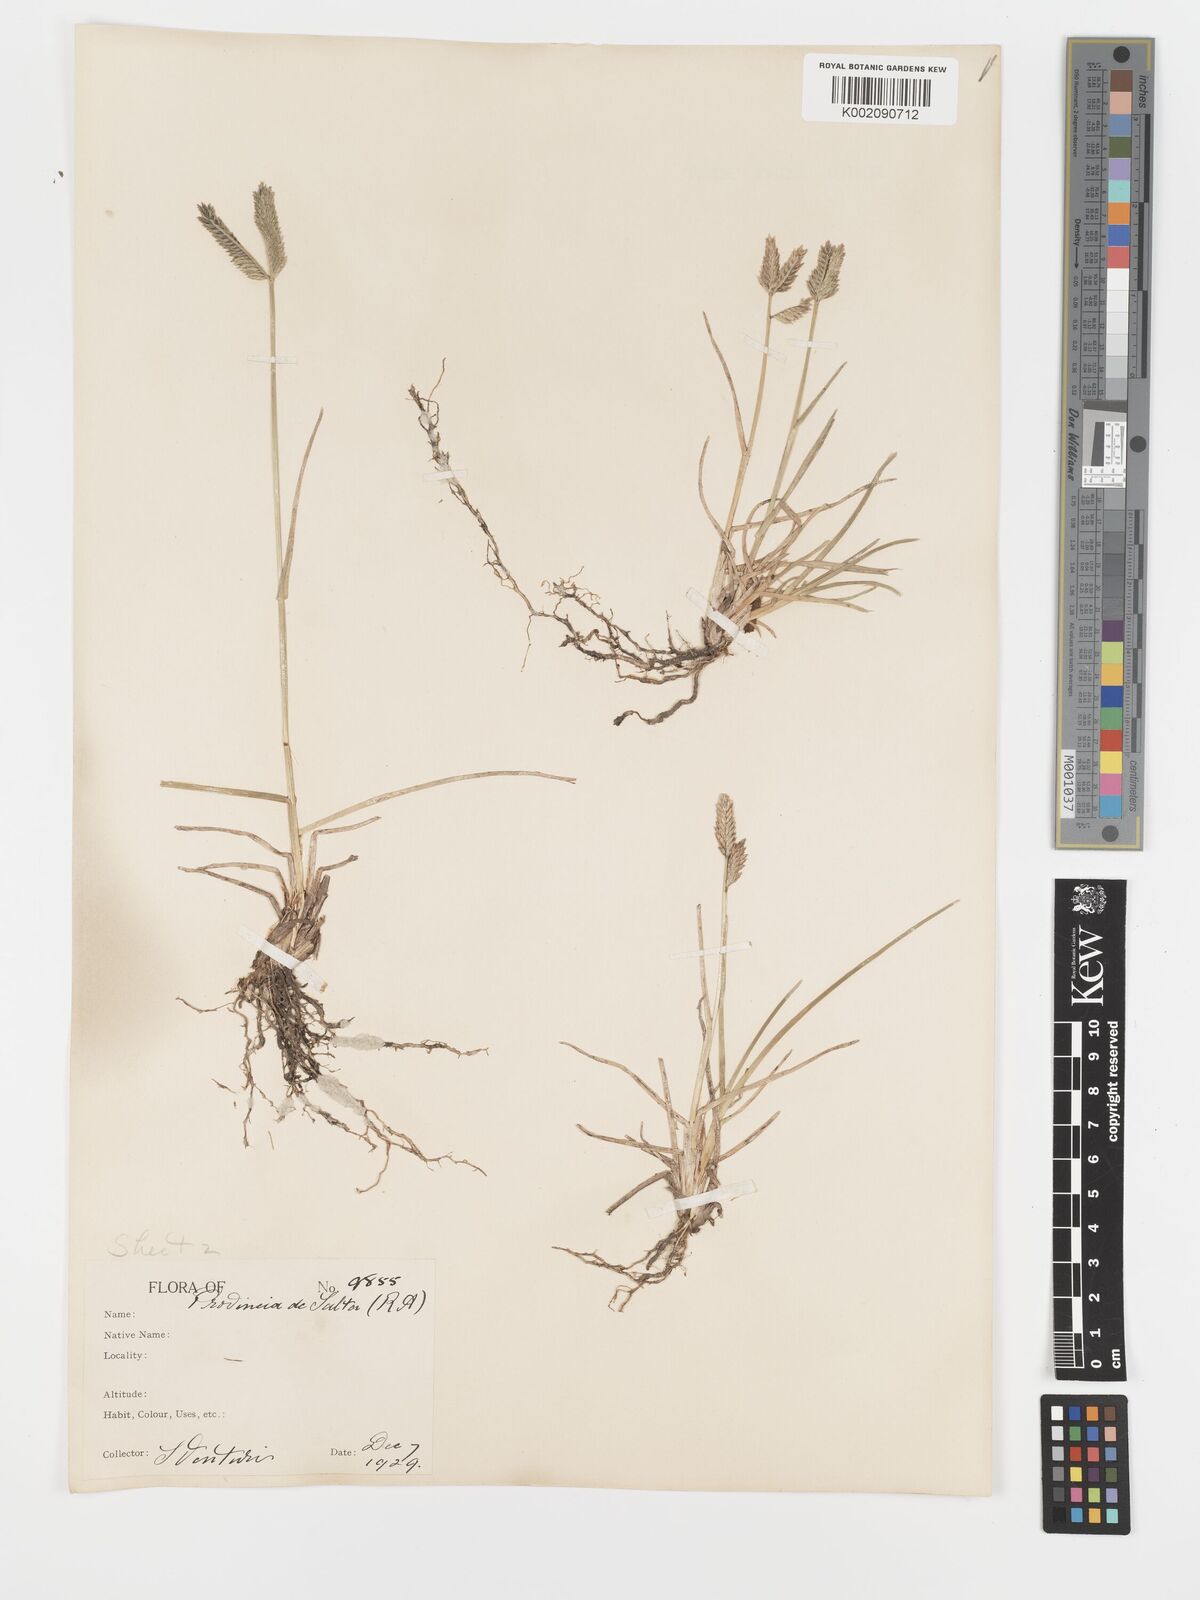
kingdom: Plantae
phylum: Tracheophyta
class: Liliopsida
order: Poales
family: Poaceae
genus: Eleusine
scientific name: Eleusine tristachya
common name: American yard-grass
